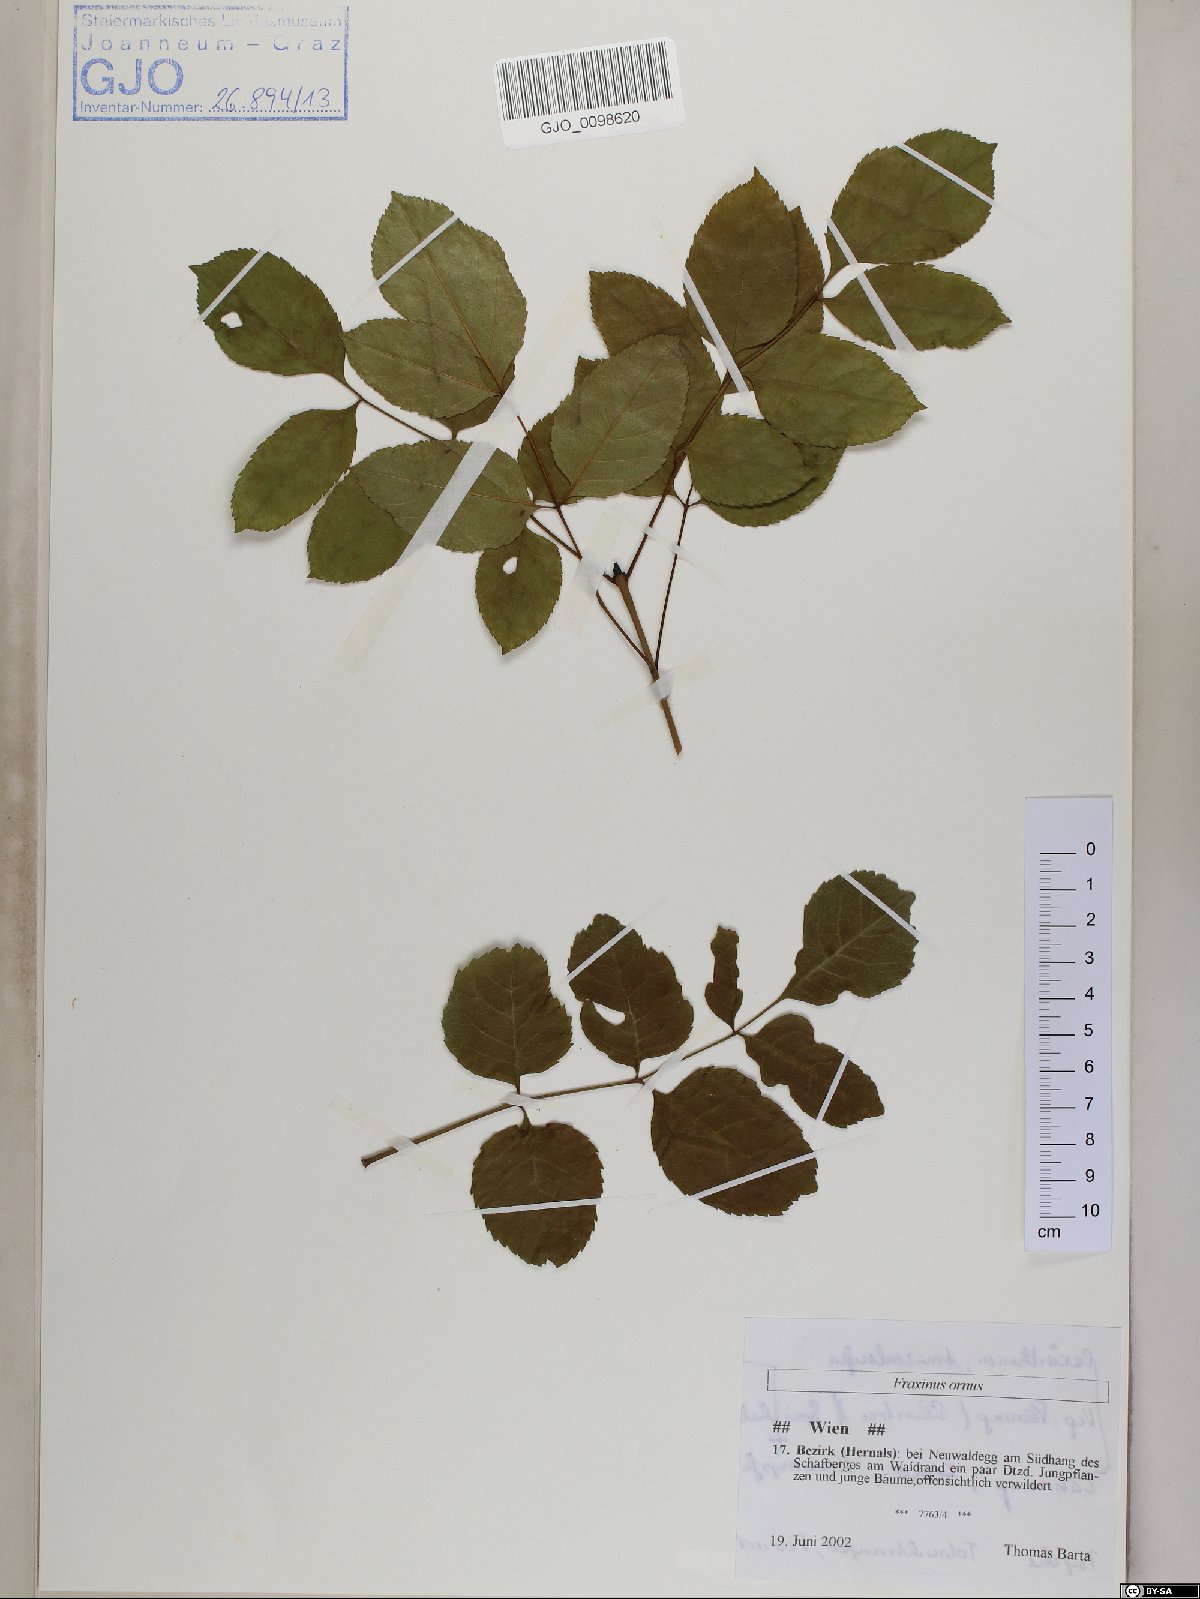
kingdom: Plantae
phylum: Tracheophyta
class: Magnoliopsida
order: Lamiales
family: Oleaceae
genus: Fraxinus
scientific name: Fraxinus ornus
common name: Manna ash
